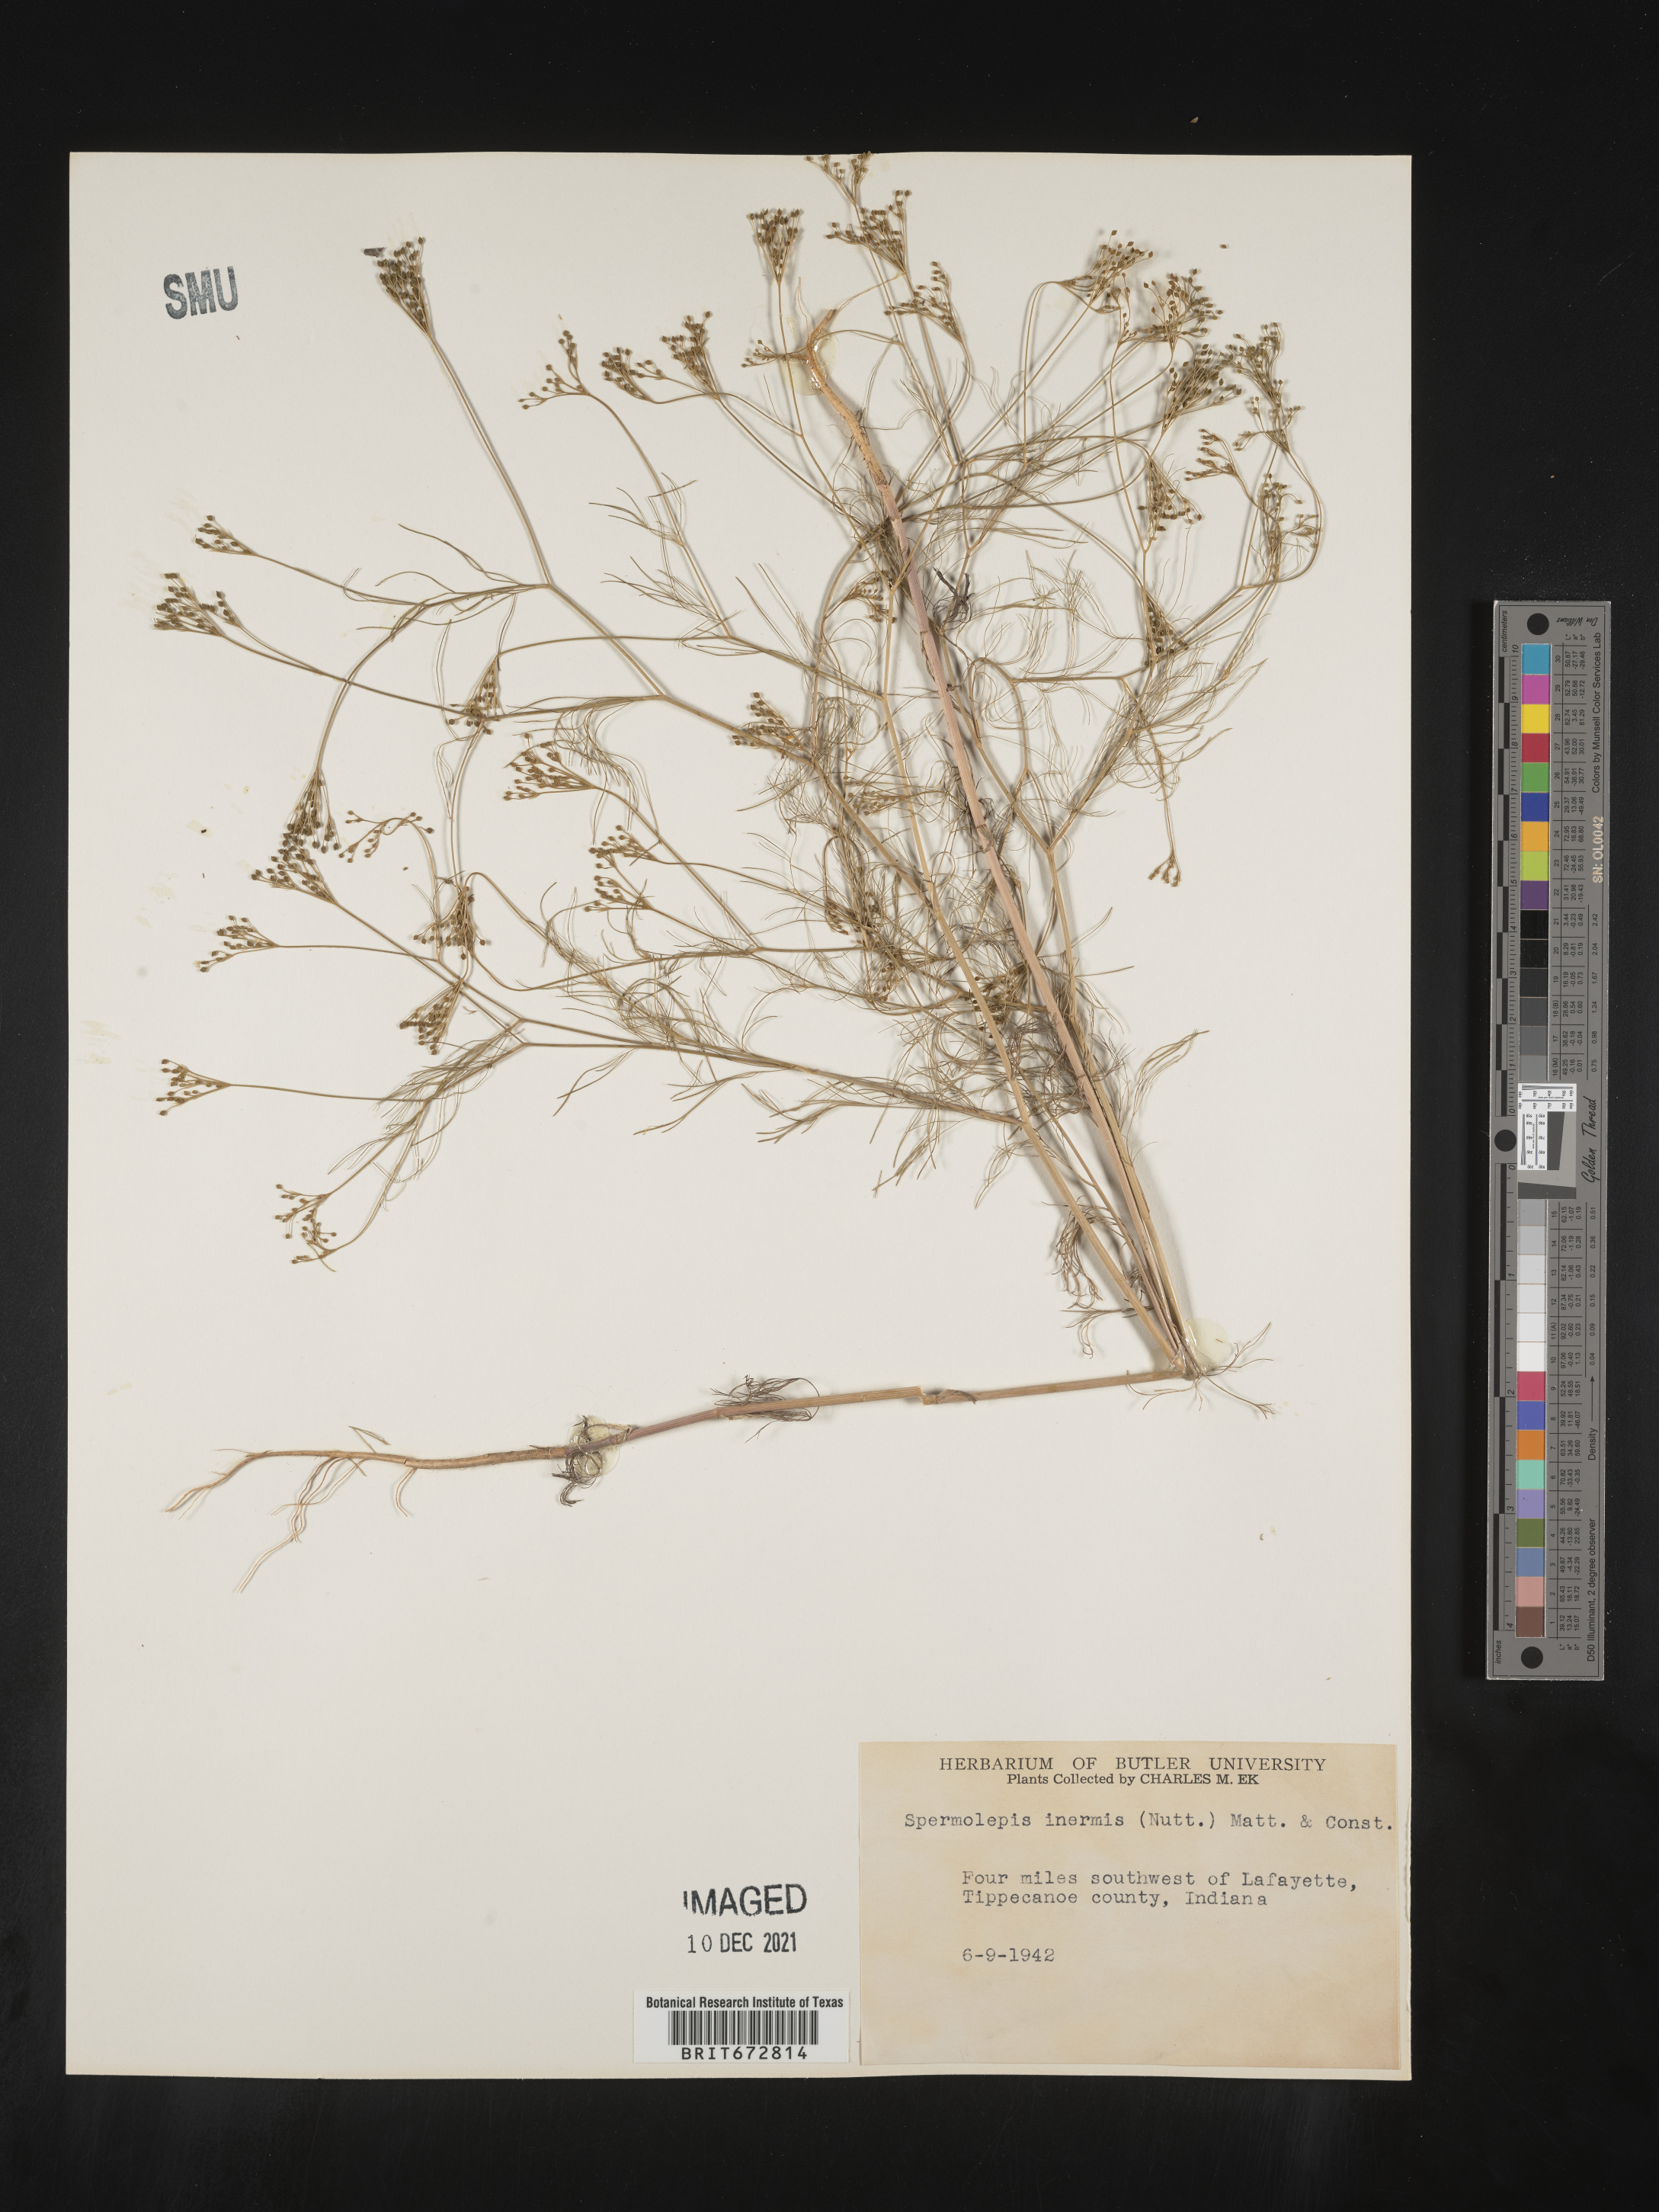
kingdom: Plantae
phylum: Tracheophyta
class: Magnoliopsida
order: Apiales
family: Apiaceae
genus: Spermolepis
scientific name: Spermolepis inermis
